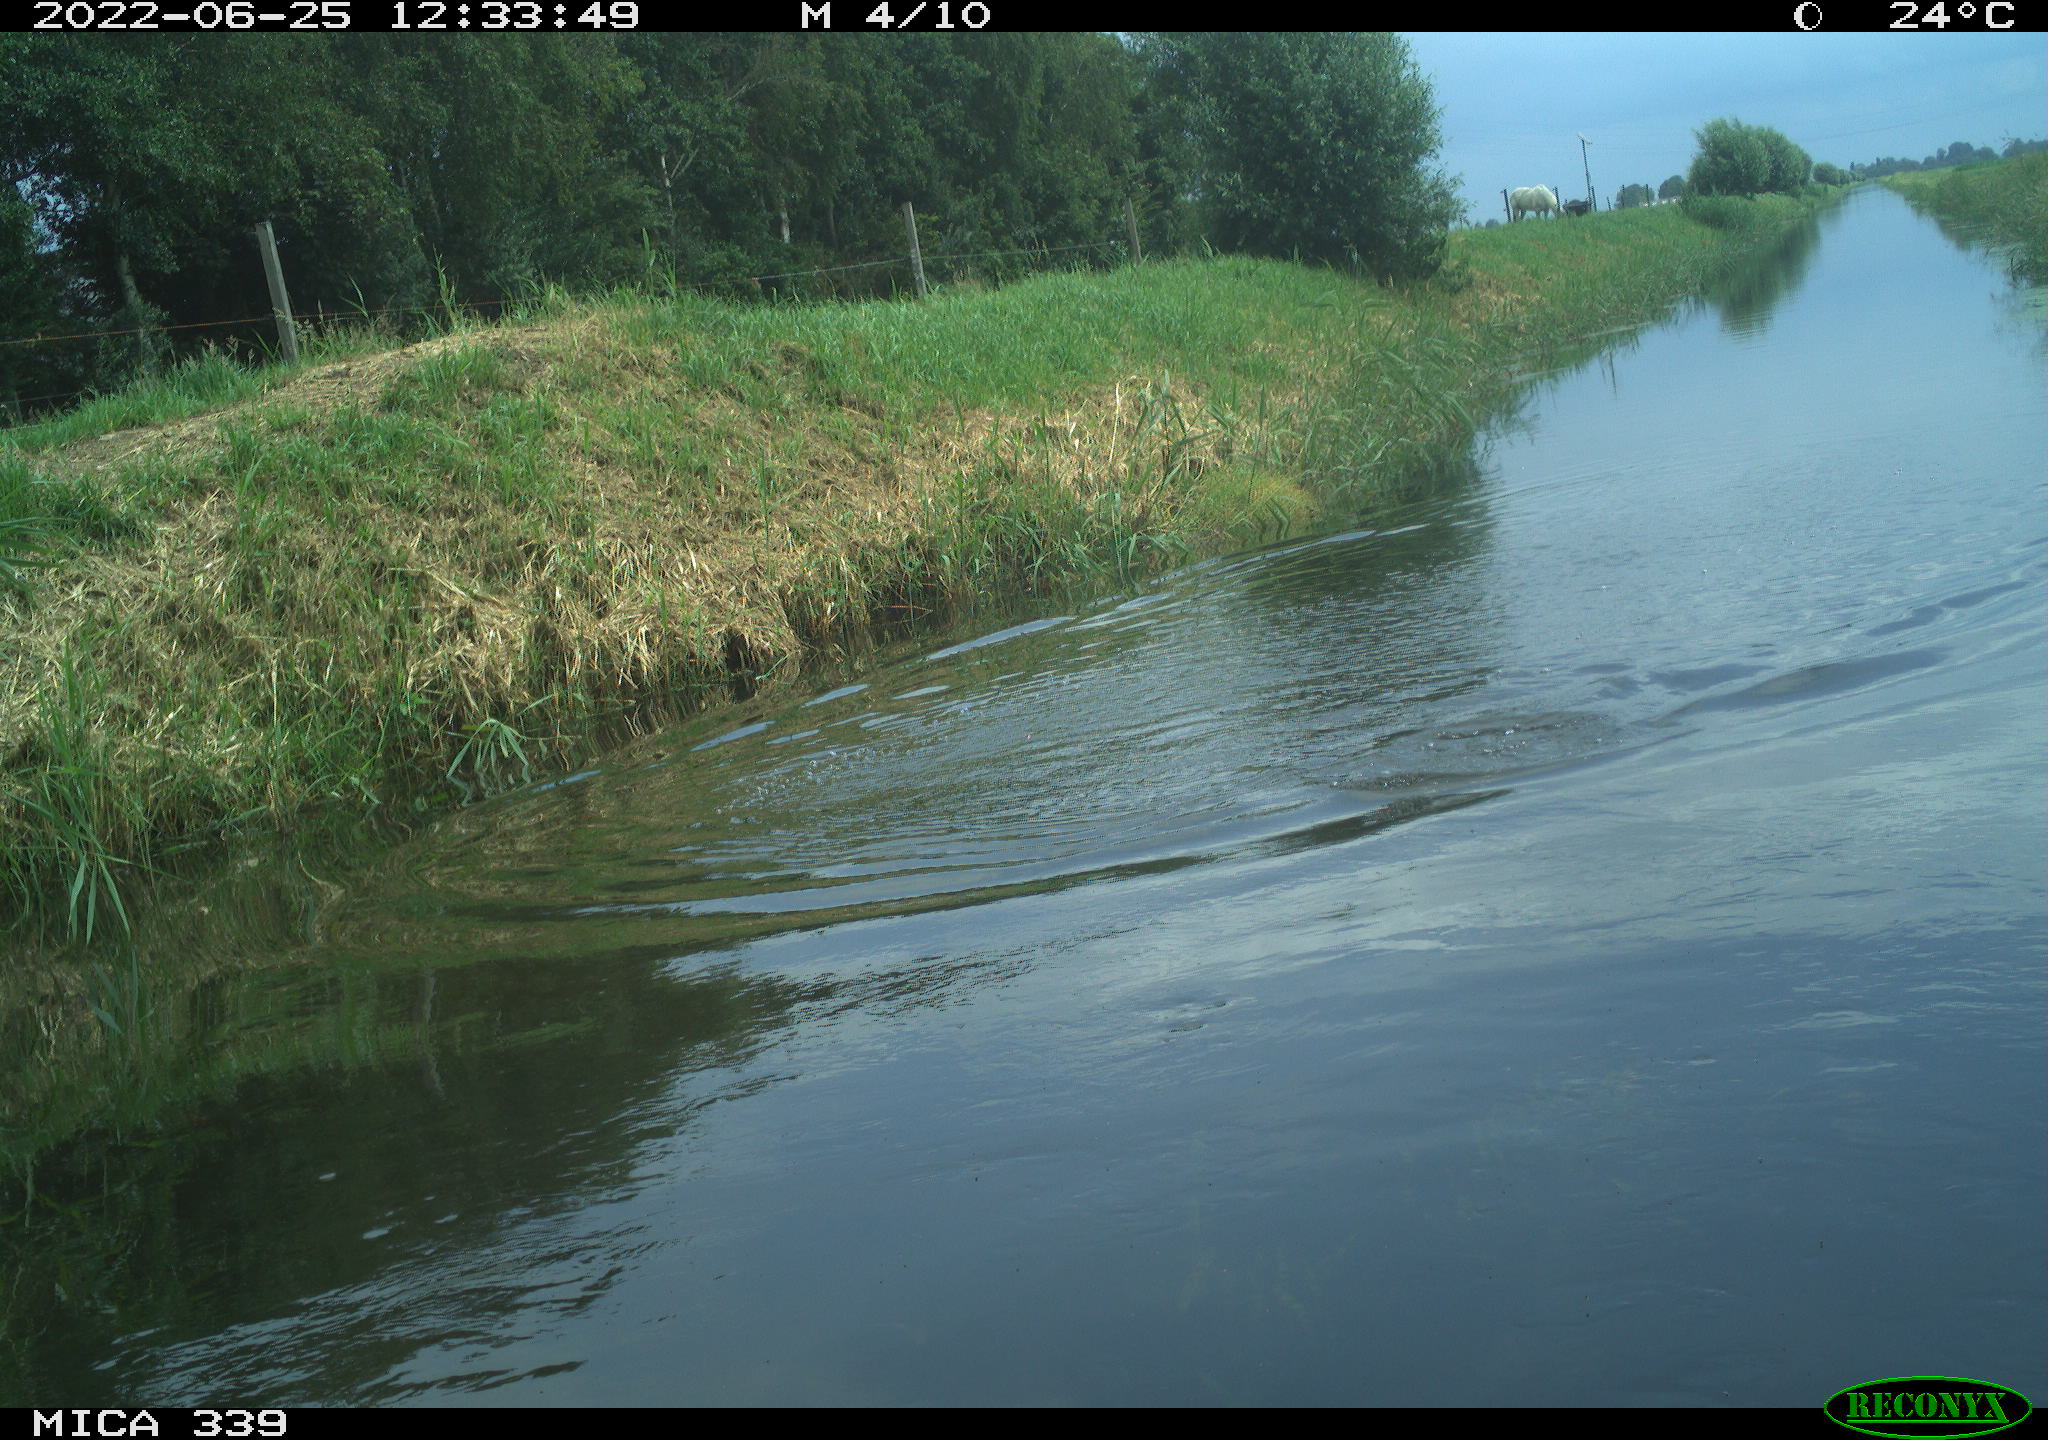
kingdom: Animalia
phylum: Chordata
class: Aves
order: Suliformes
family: Phalacrocoracidae
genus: Phalacrocorax
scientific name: Phalacrocorax carbo
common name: Great cormorant
